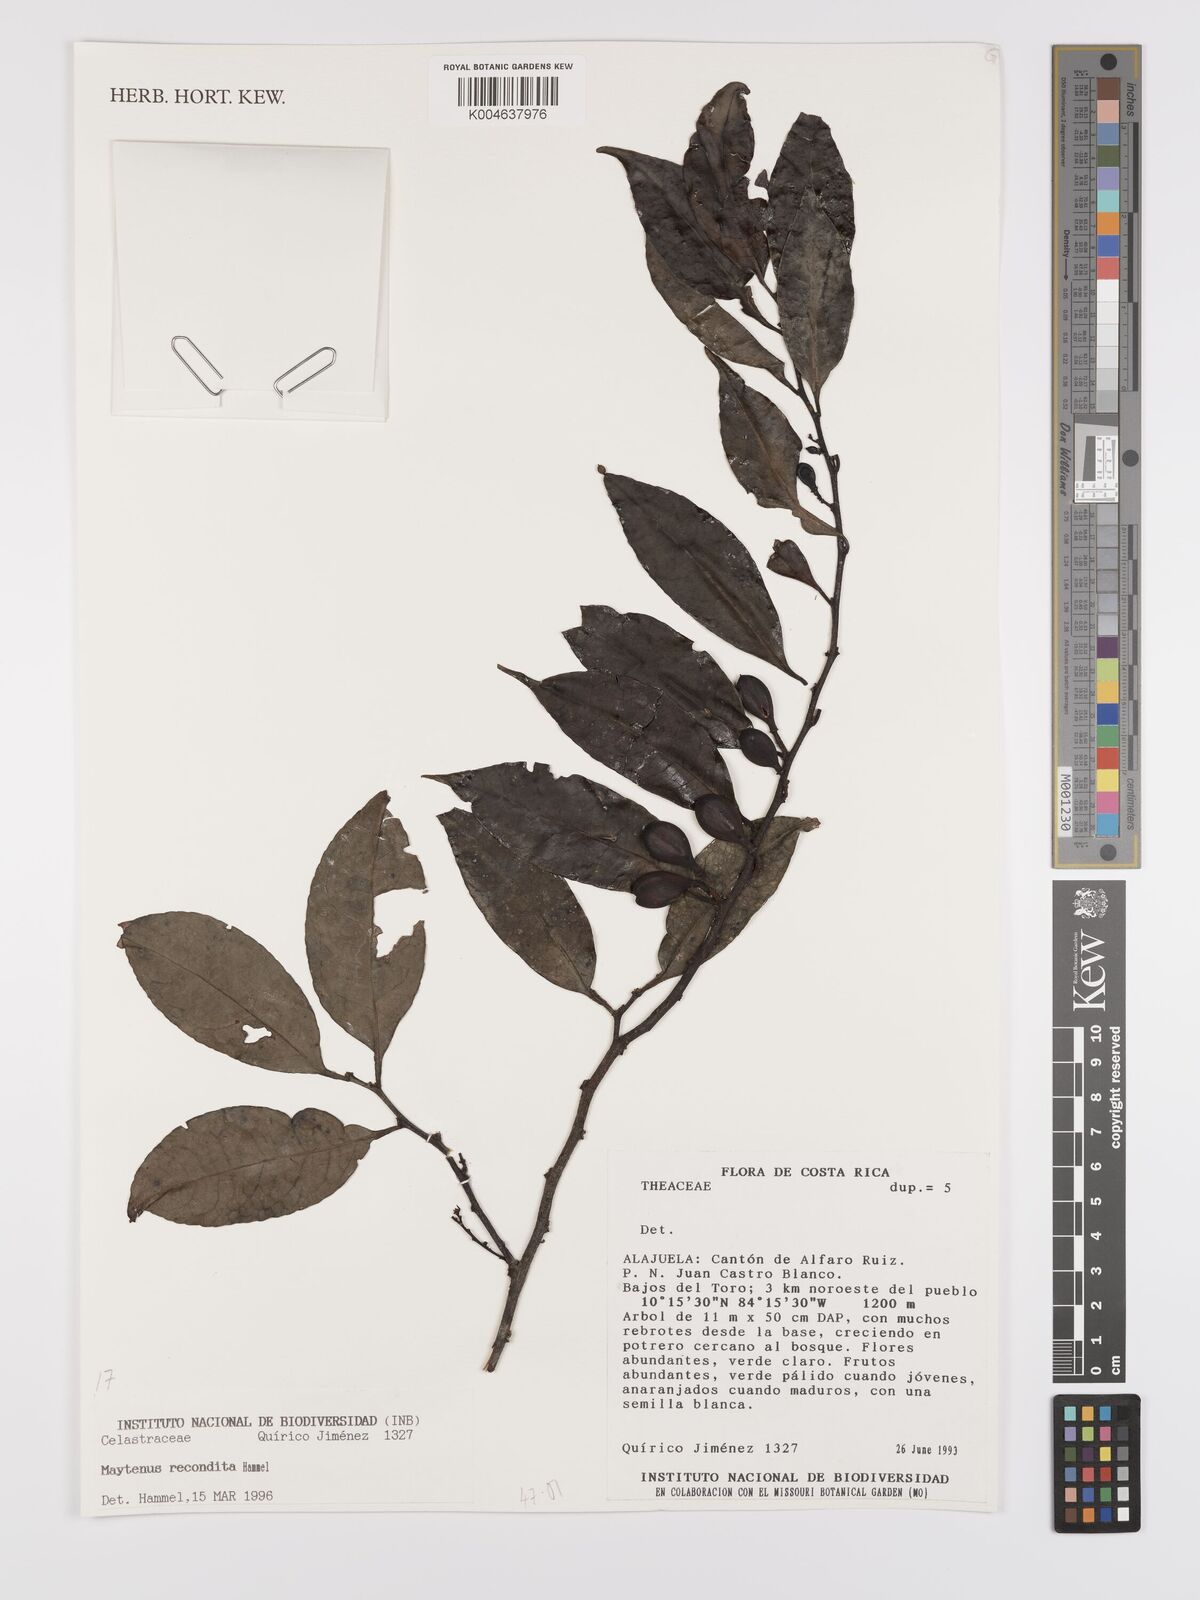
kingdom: Plantae
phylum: Tracheophyta
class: Magnoliopsida
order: Celastrales
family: Celastraceae
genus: Maytenus
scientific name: Maytenus
